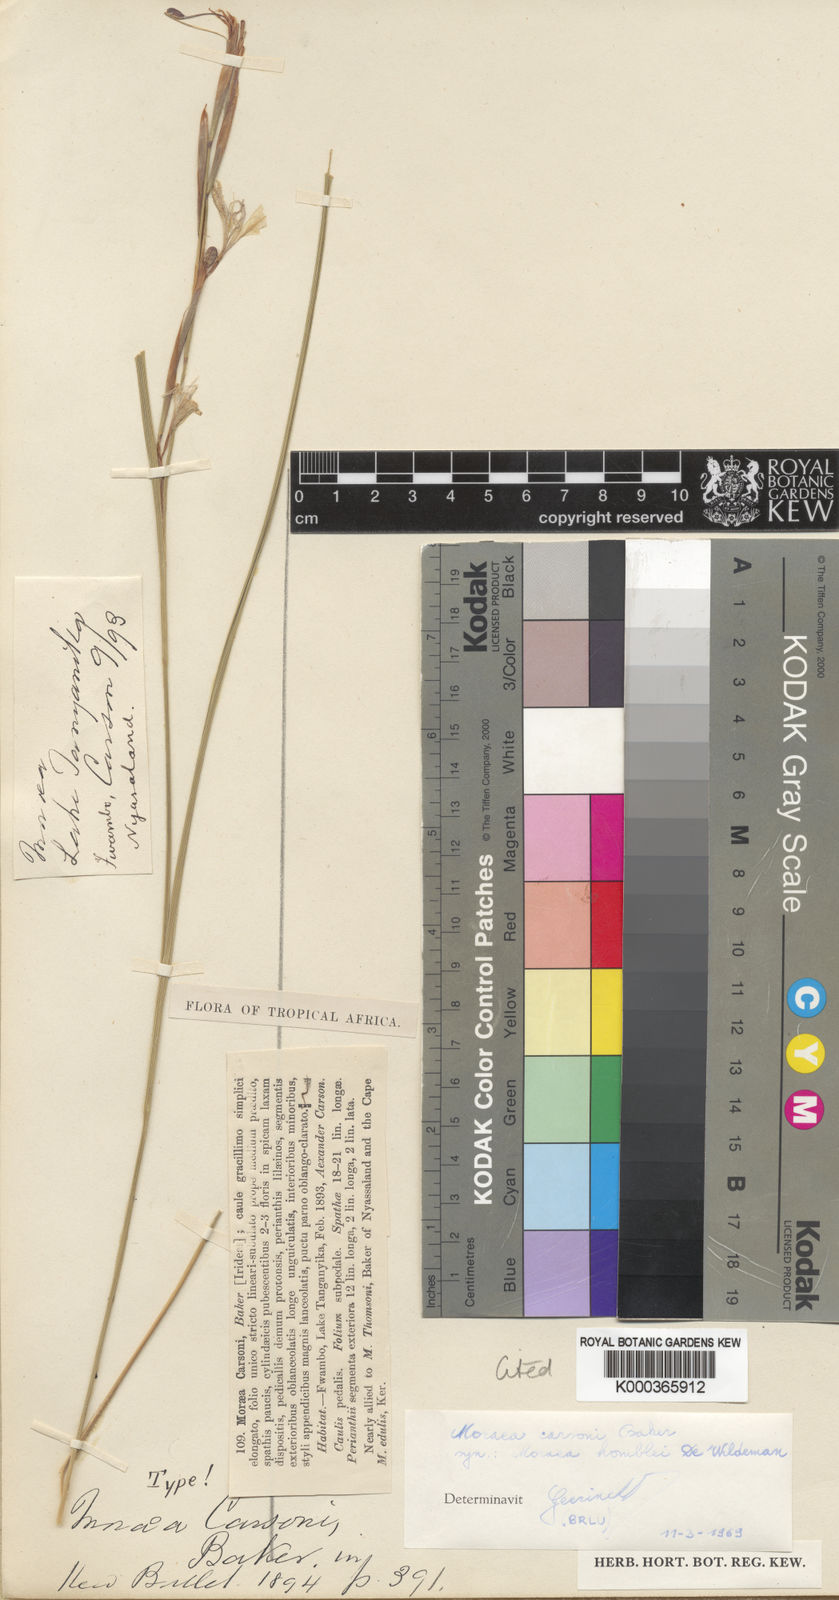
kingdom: Plantae
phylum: Tracheophyta
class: Liliopsida
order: Asparagales
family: Iridaceae
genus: Moraea
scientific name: Moraea carsonii
